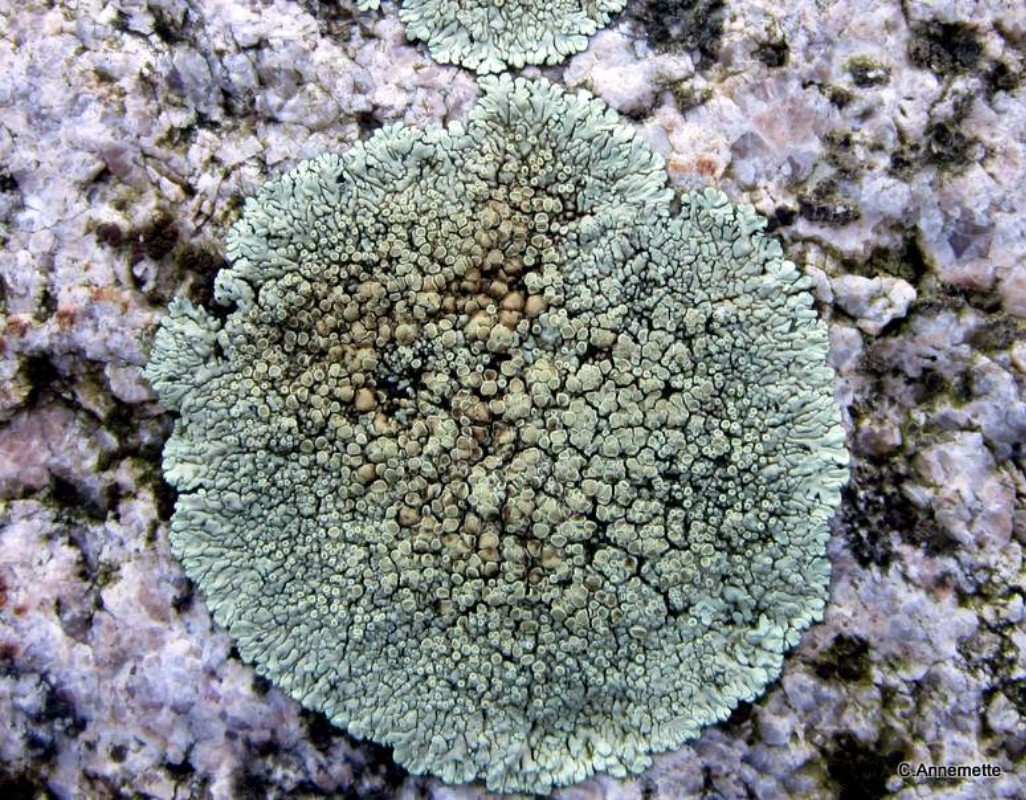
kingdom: Fungi
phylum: Ascomycota
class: Lecanoromycetes
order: Lecanorales
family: Lecanoraceae
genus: Protoparmeliopsis
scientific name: Protoparmeliopsis muralis
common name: randfliget kantskivelav
